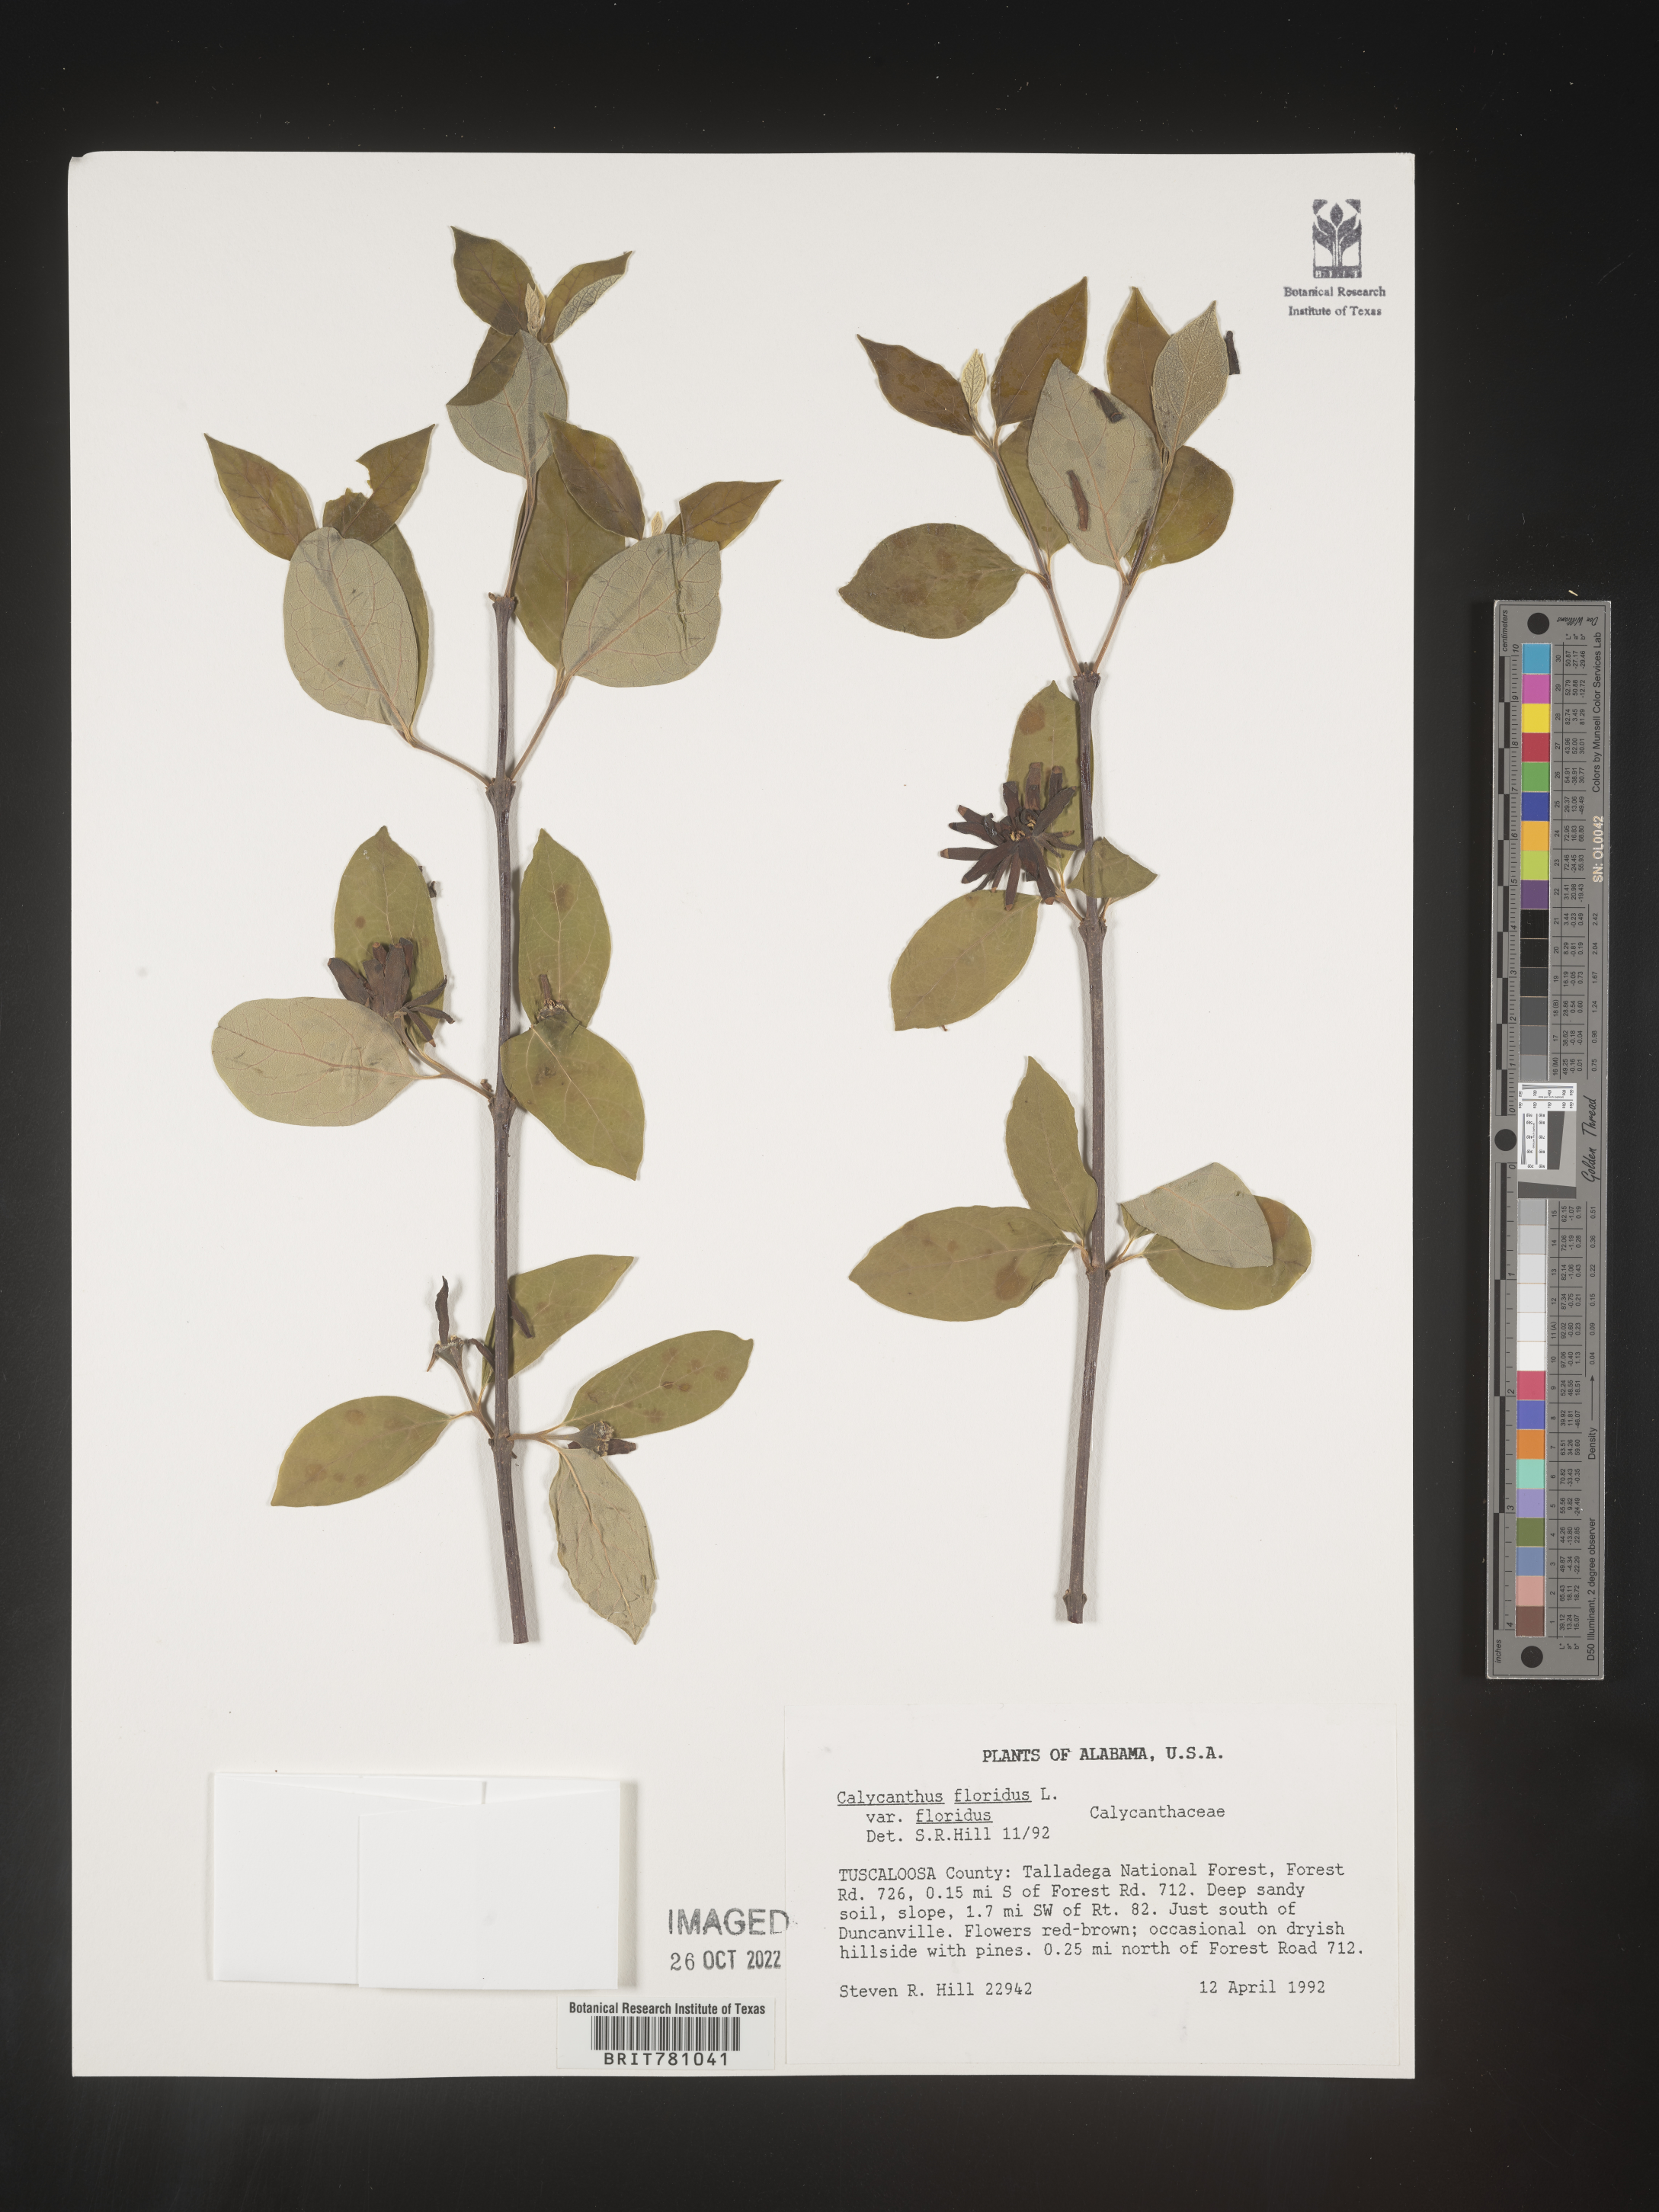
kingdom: Plantae
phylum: Tracheophyta
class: Magnoliopsida
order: Laurales
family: Calycanthaceae
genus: Calycanthus
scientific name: Calycanthus floridus
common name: Carolina-allspice
